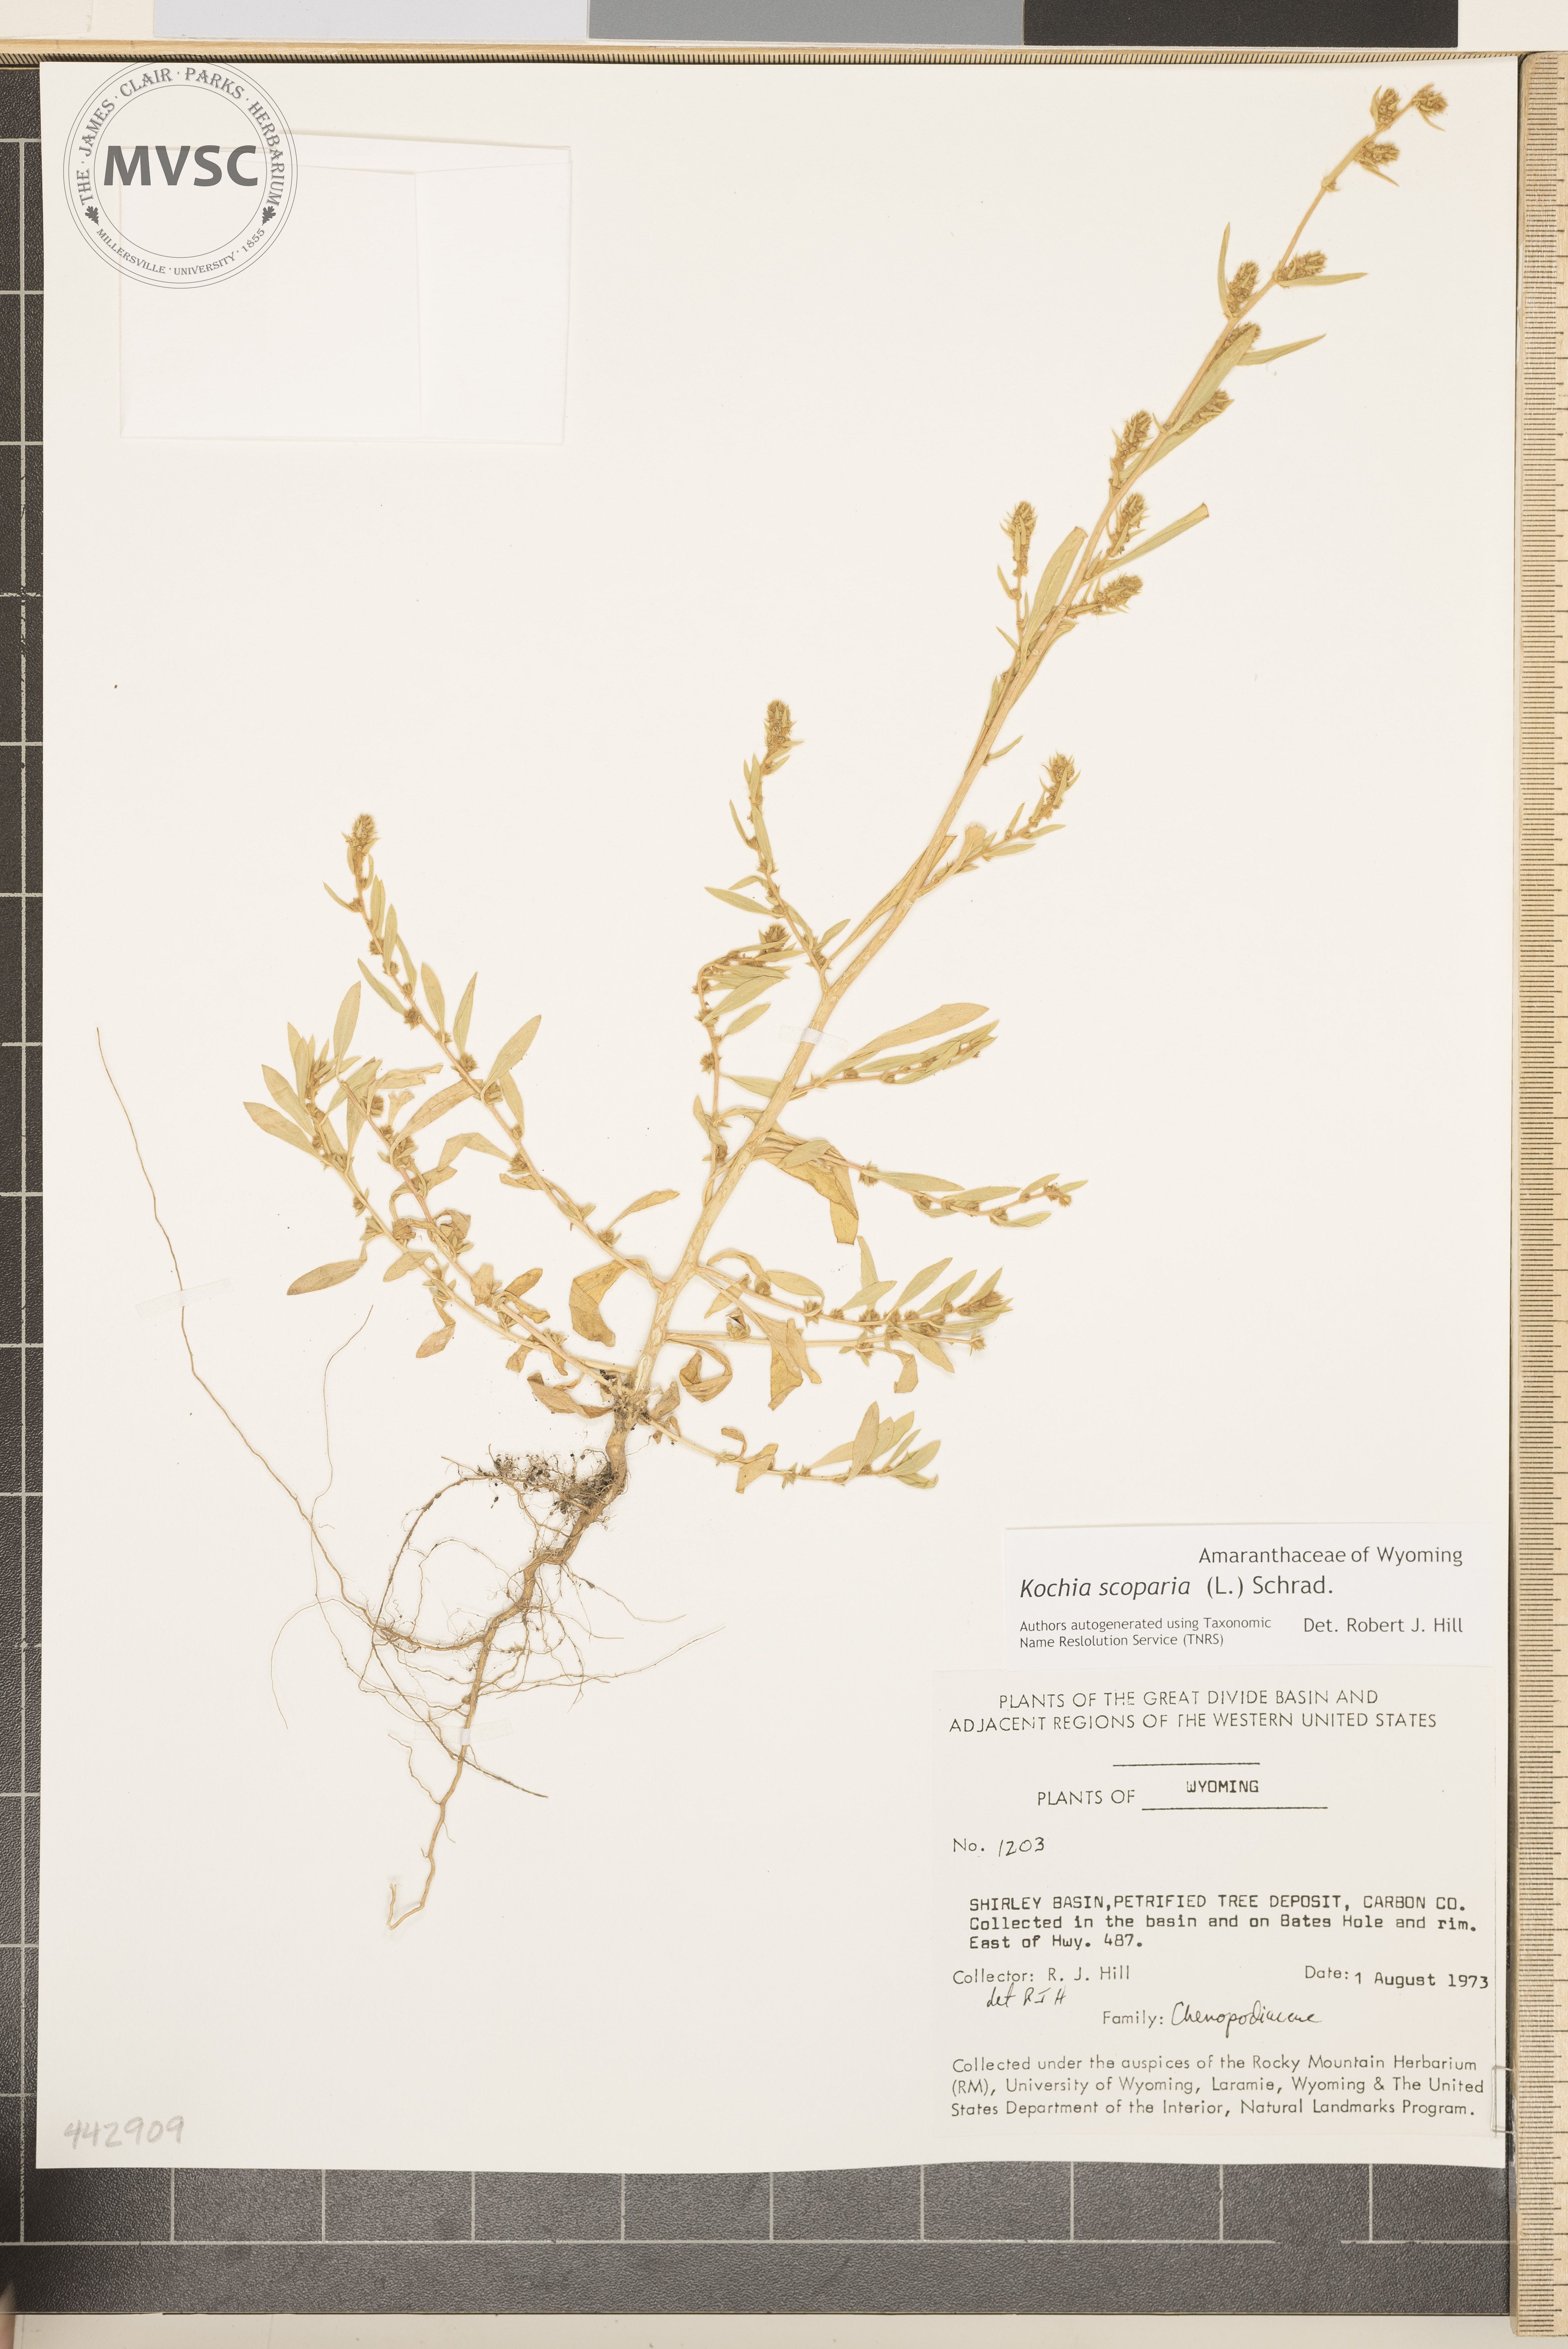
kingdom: Plantae
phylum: Tracheophyta
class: Magnoliopsida
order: Caryophyllales
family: Amaranthaceae
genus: Bassia
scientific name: Bassia scoparia
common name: Belvedere
